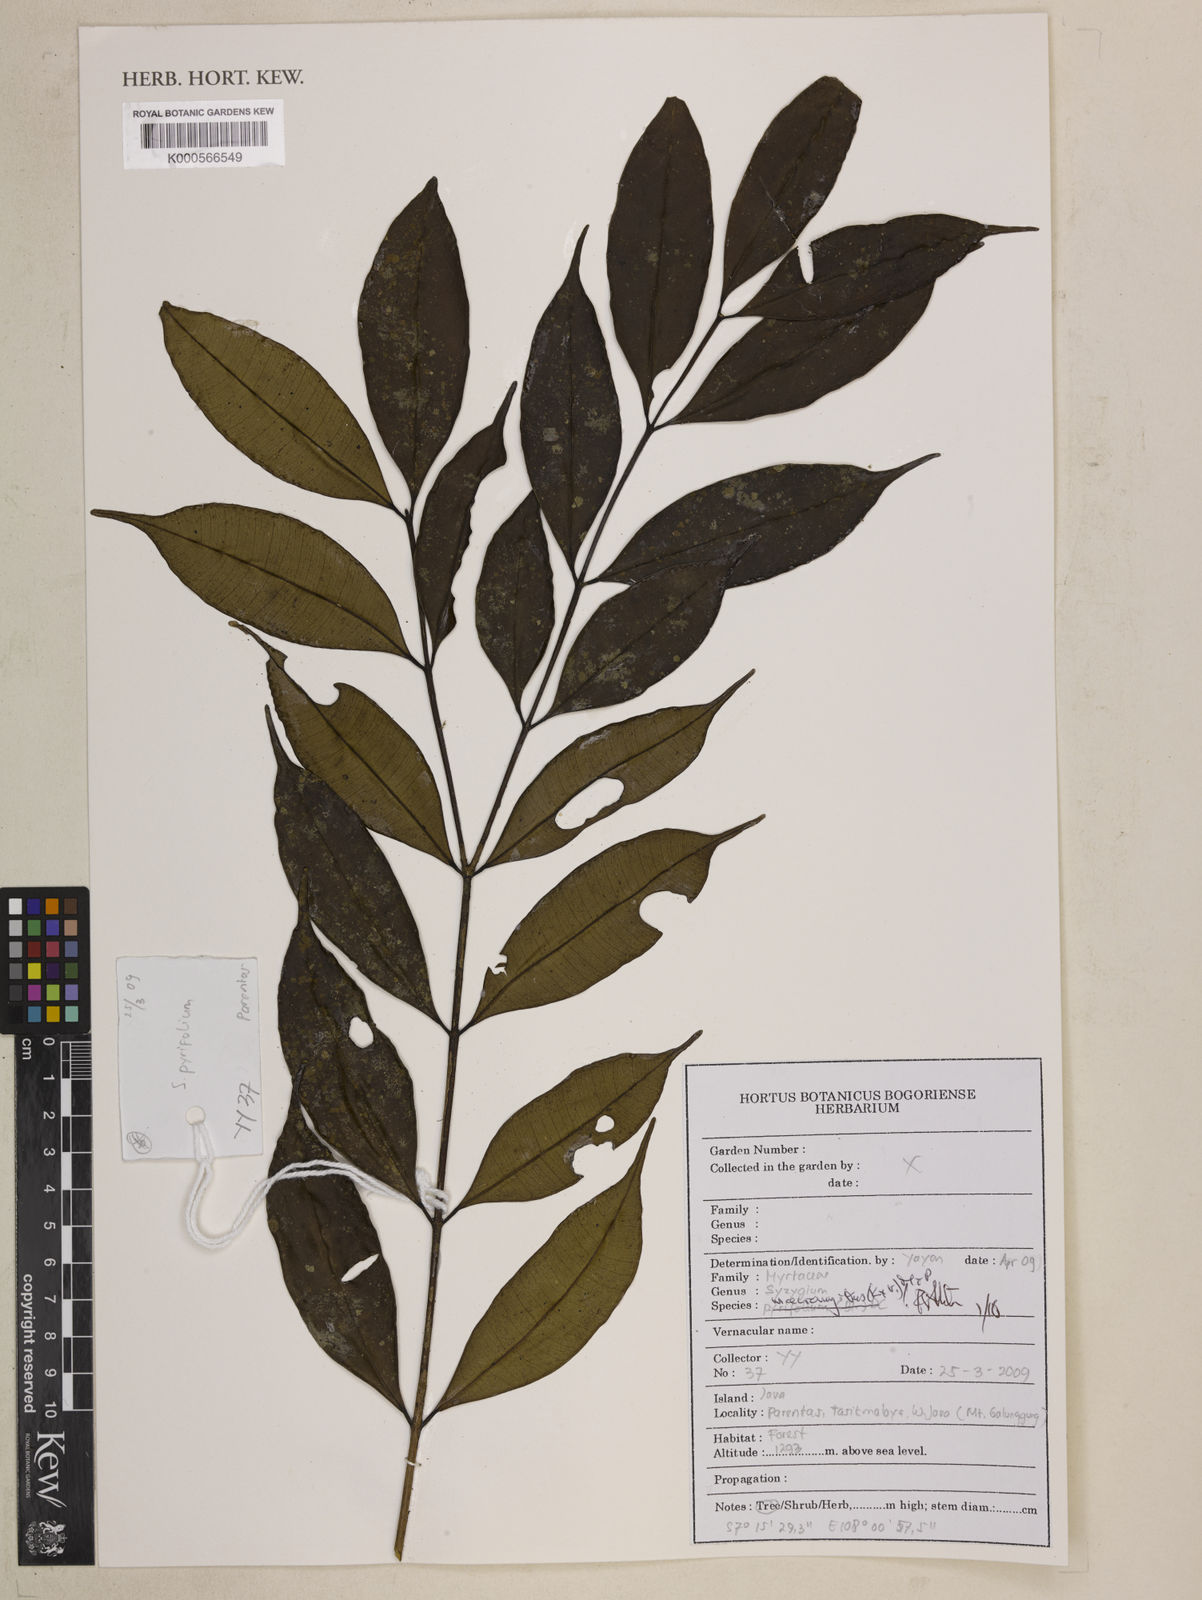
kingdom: Plantae
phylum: Tracheophyta
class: Magnoliopsida
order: Myrtales
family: Myrtaceae
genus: Syzygium
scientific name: Syzygium macromyrtus
